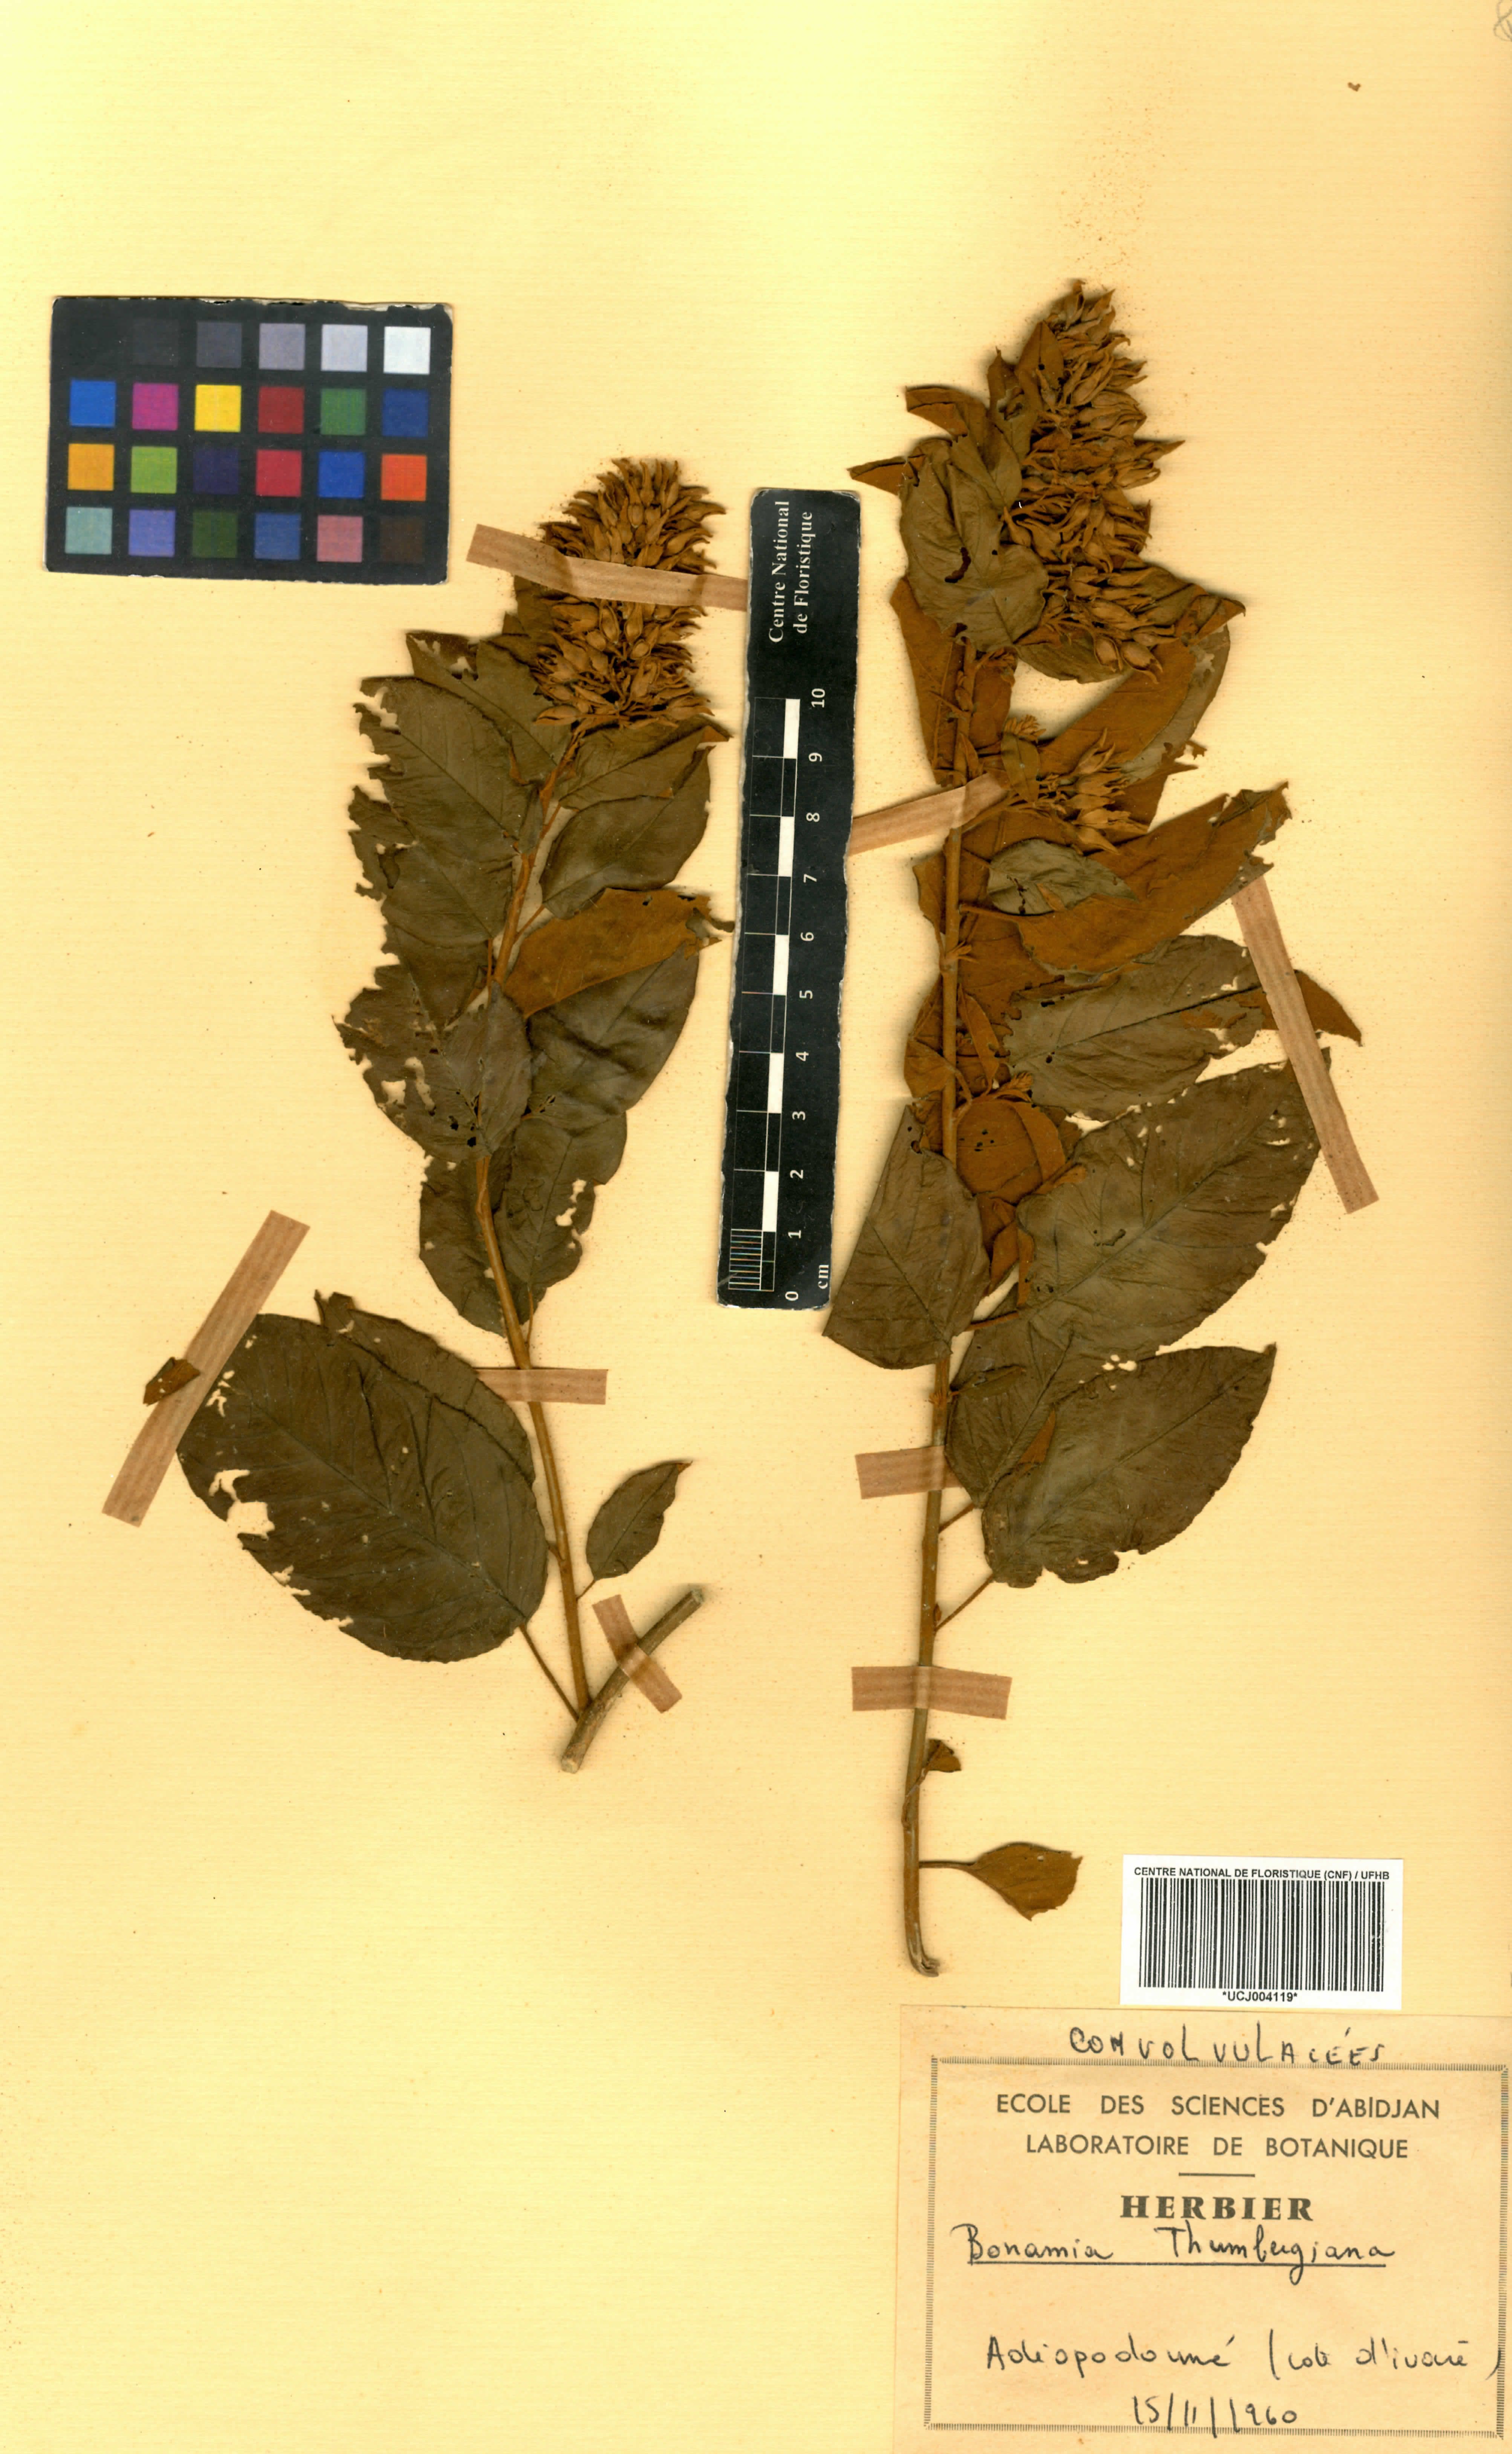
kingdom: Plantae
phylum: Tracheophyta
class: Magnoliopsida
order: Solanales
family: Convolvulaceae
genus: Bonamia
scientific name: Bonamia thunbergiana
